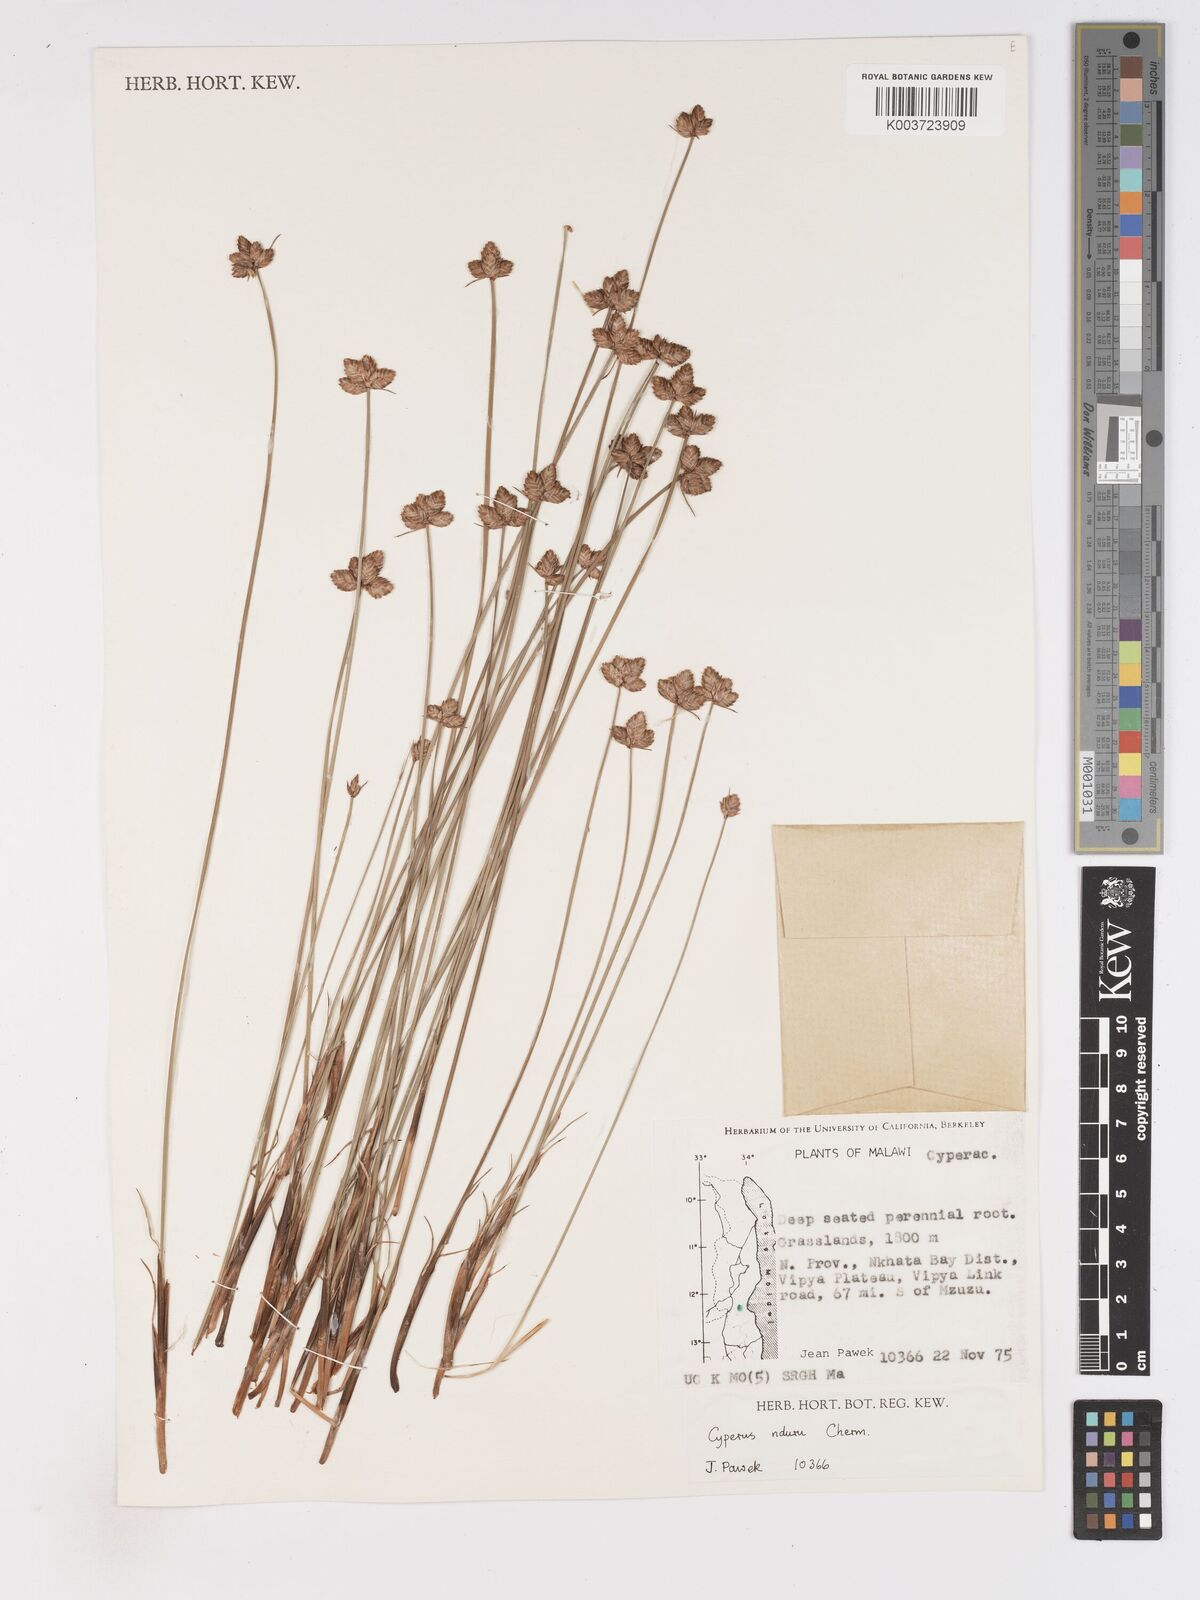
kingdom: Plantae
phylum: Tracheophyta
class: Liliopsida
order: Poales
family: Cyperaceae
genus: Cyperus
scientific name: Cyperus nduru
